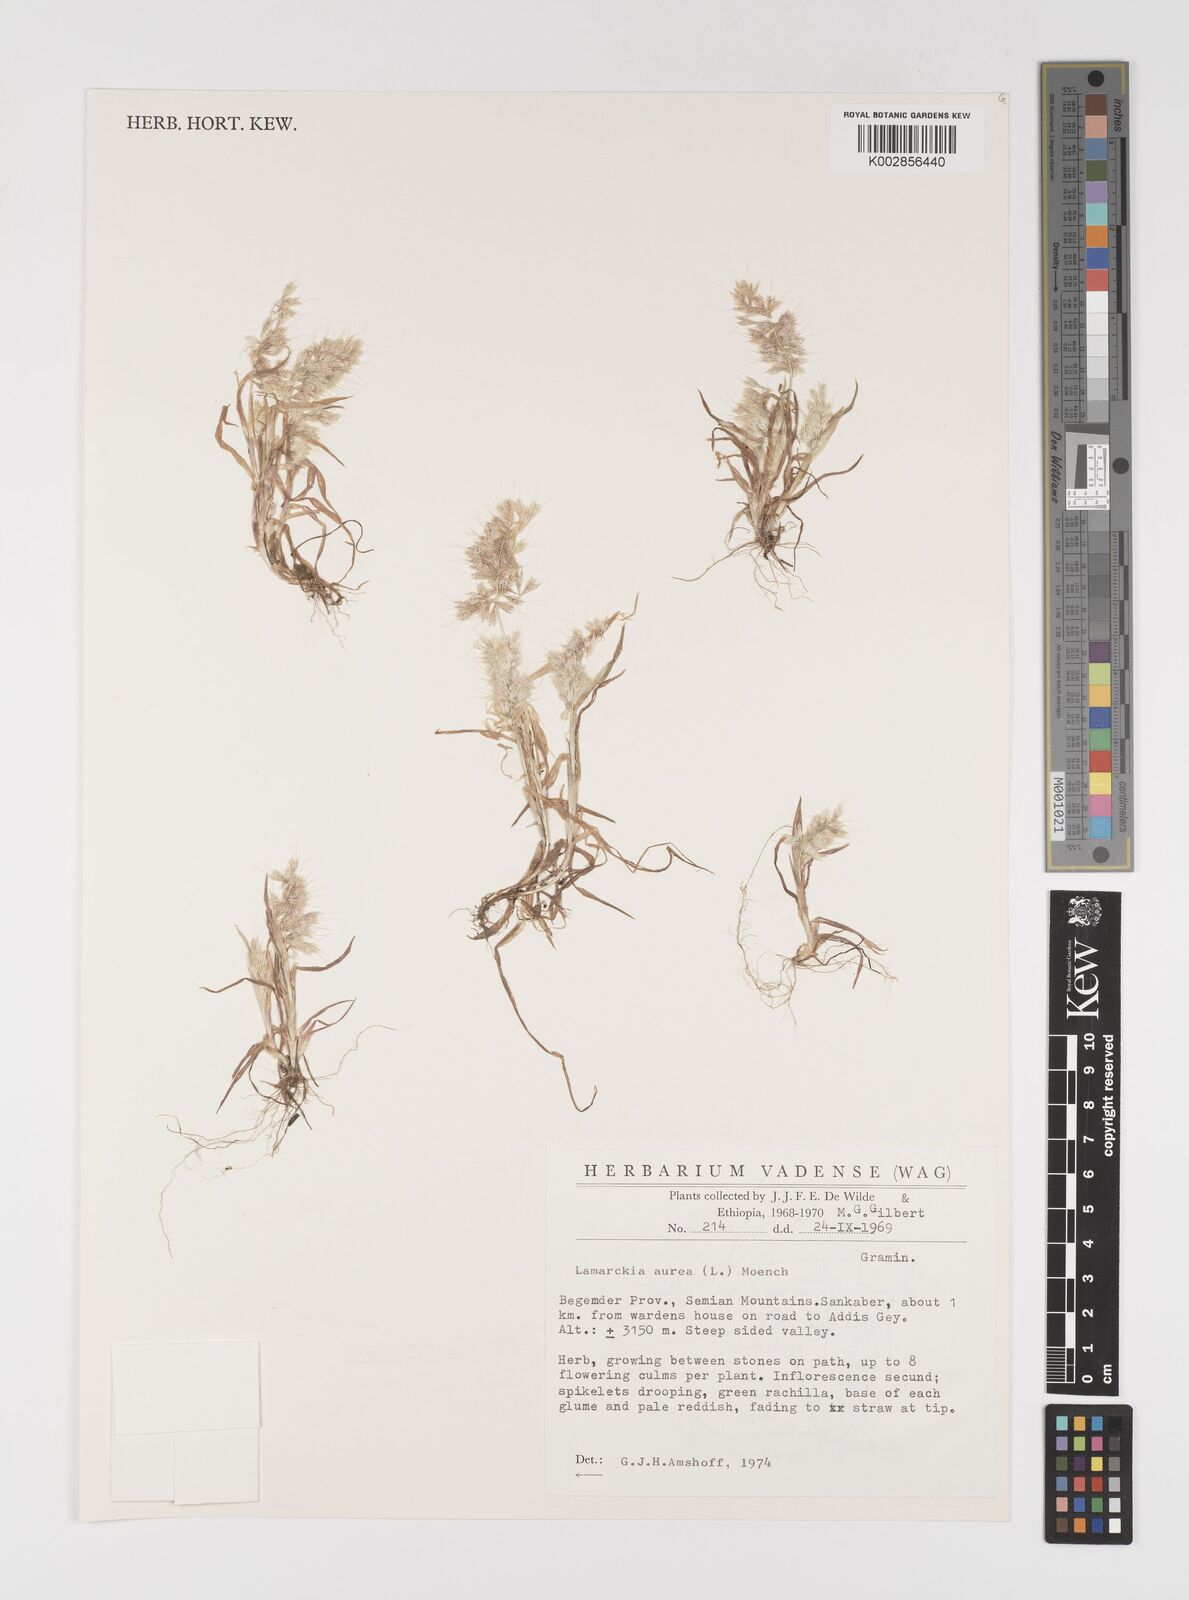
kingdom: Plantae
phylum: Tracheophyta
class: Liliopsida
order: Poales
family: Poaceae
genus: Lamarckia
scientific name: Lamarckia aurea
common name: Golden dog's-tail
